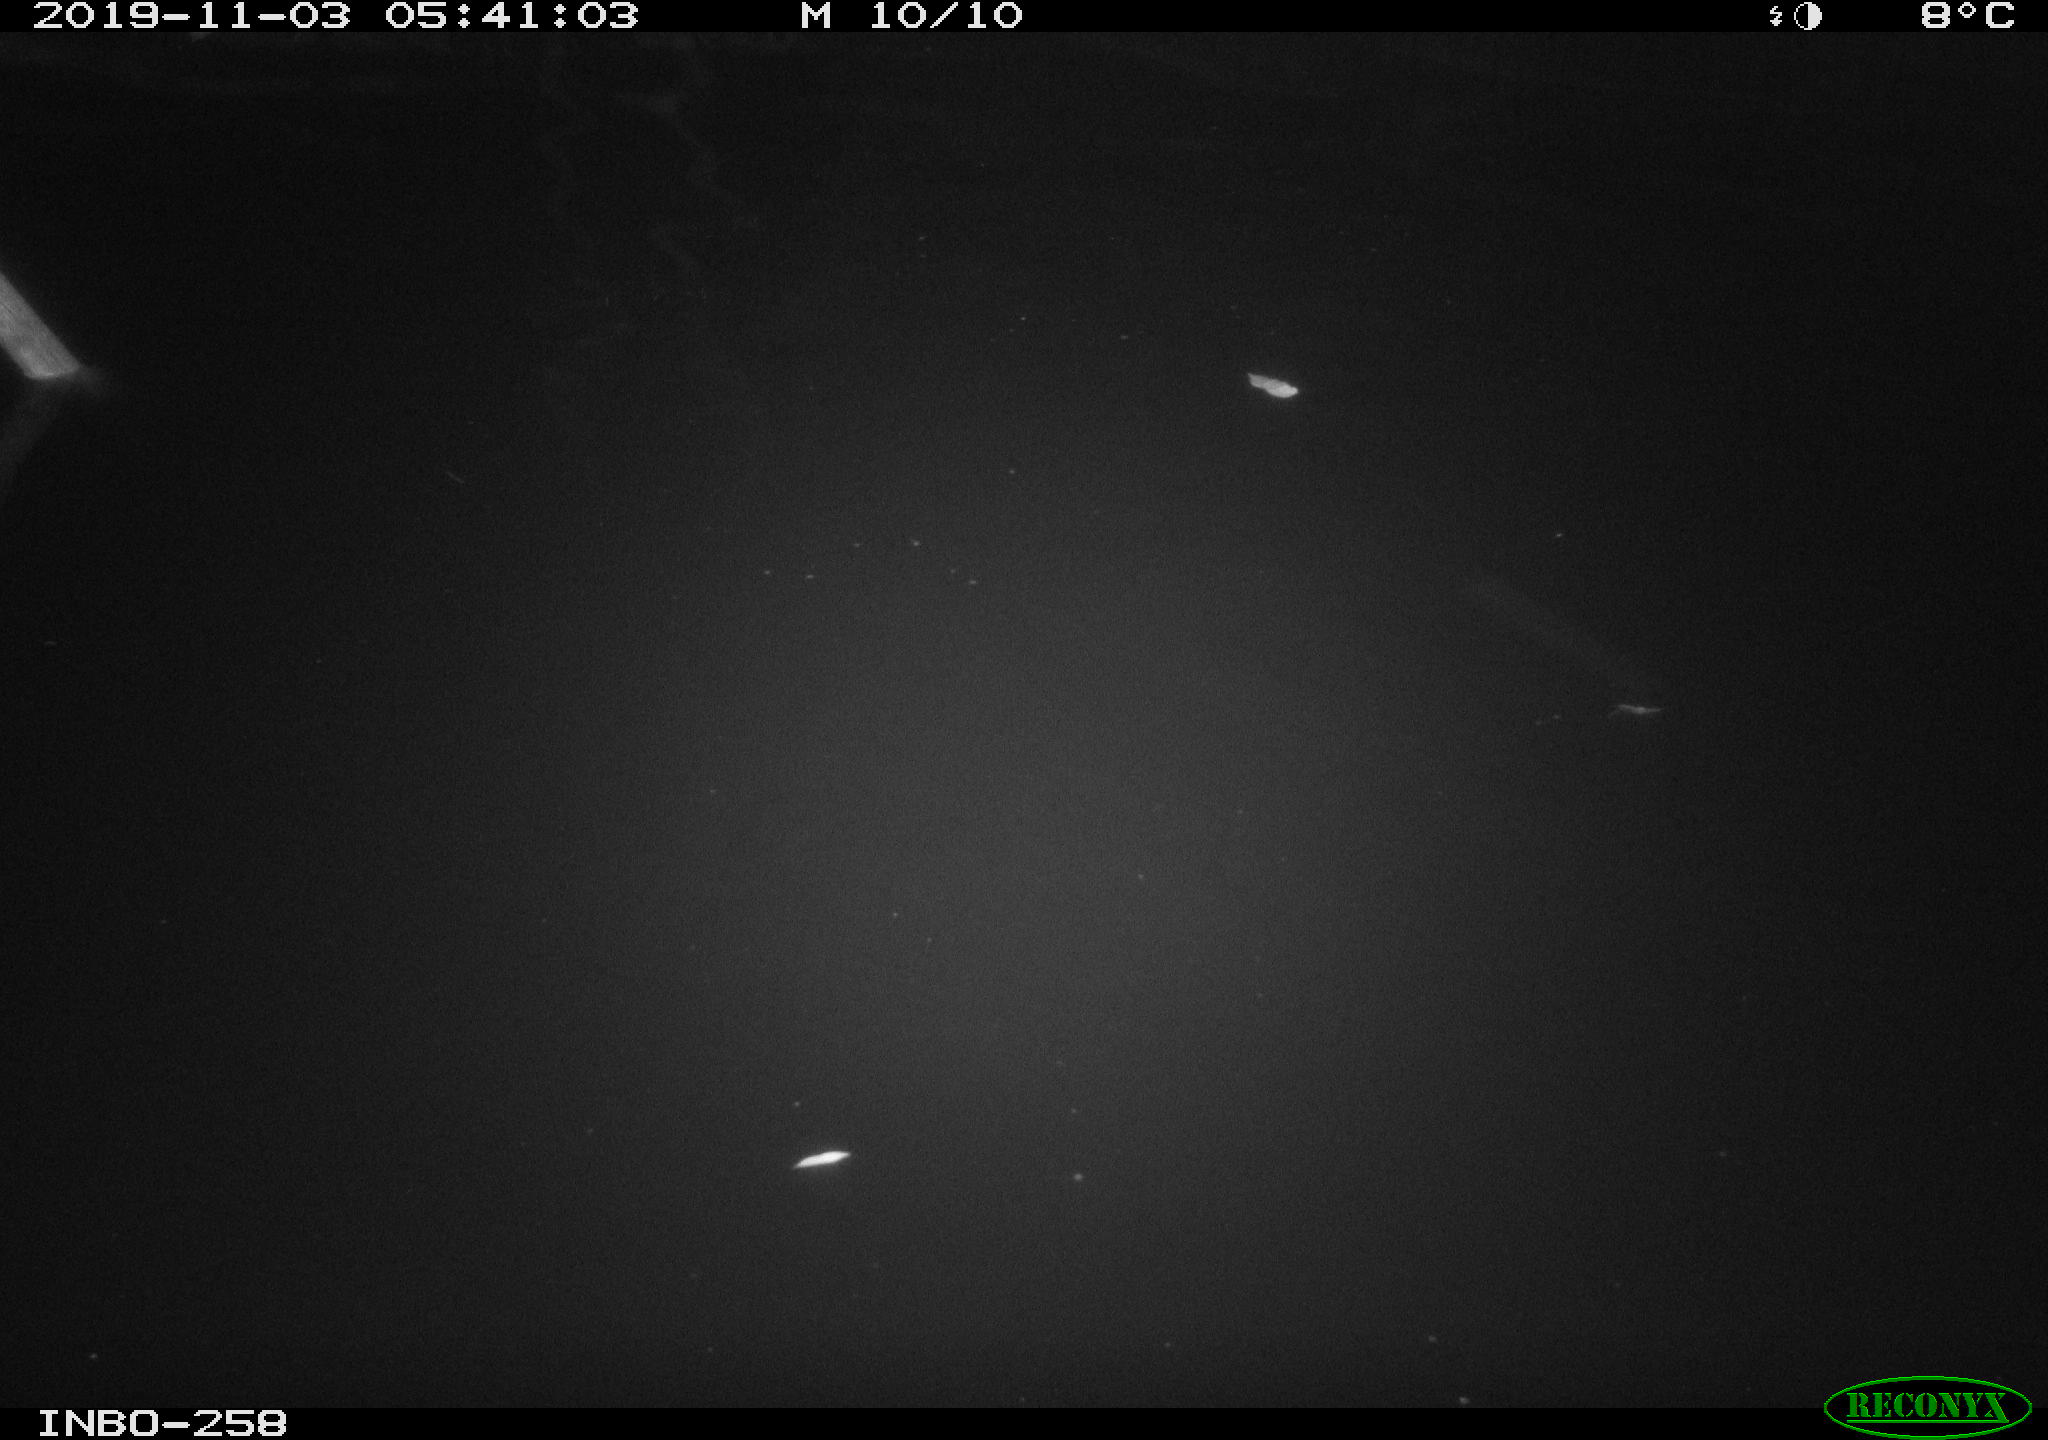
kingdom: Animalia
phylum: Chordata
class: Aves
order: Anseriformes
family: Anatidae
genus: Anas
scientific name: Anas platyrhynchos
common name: Mallard
